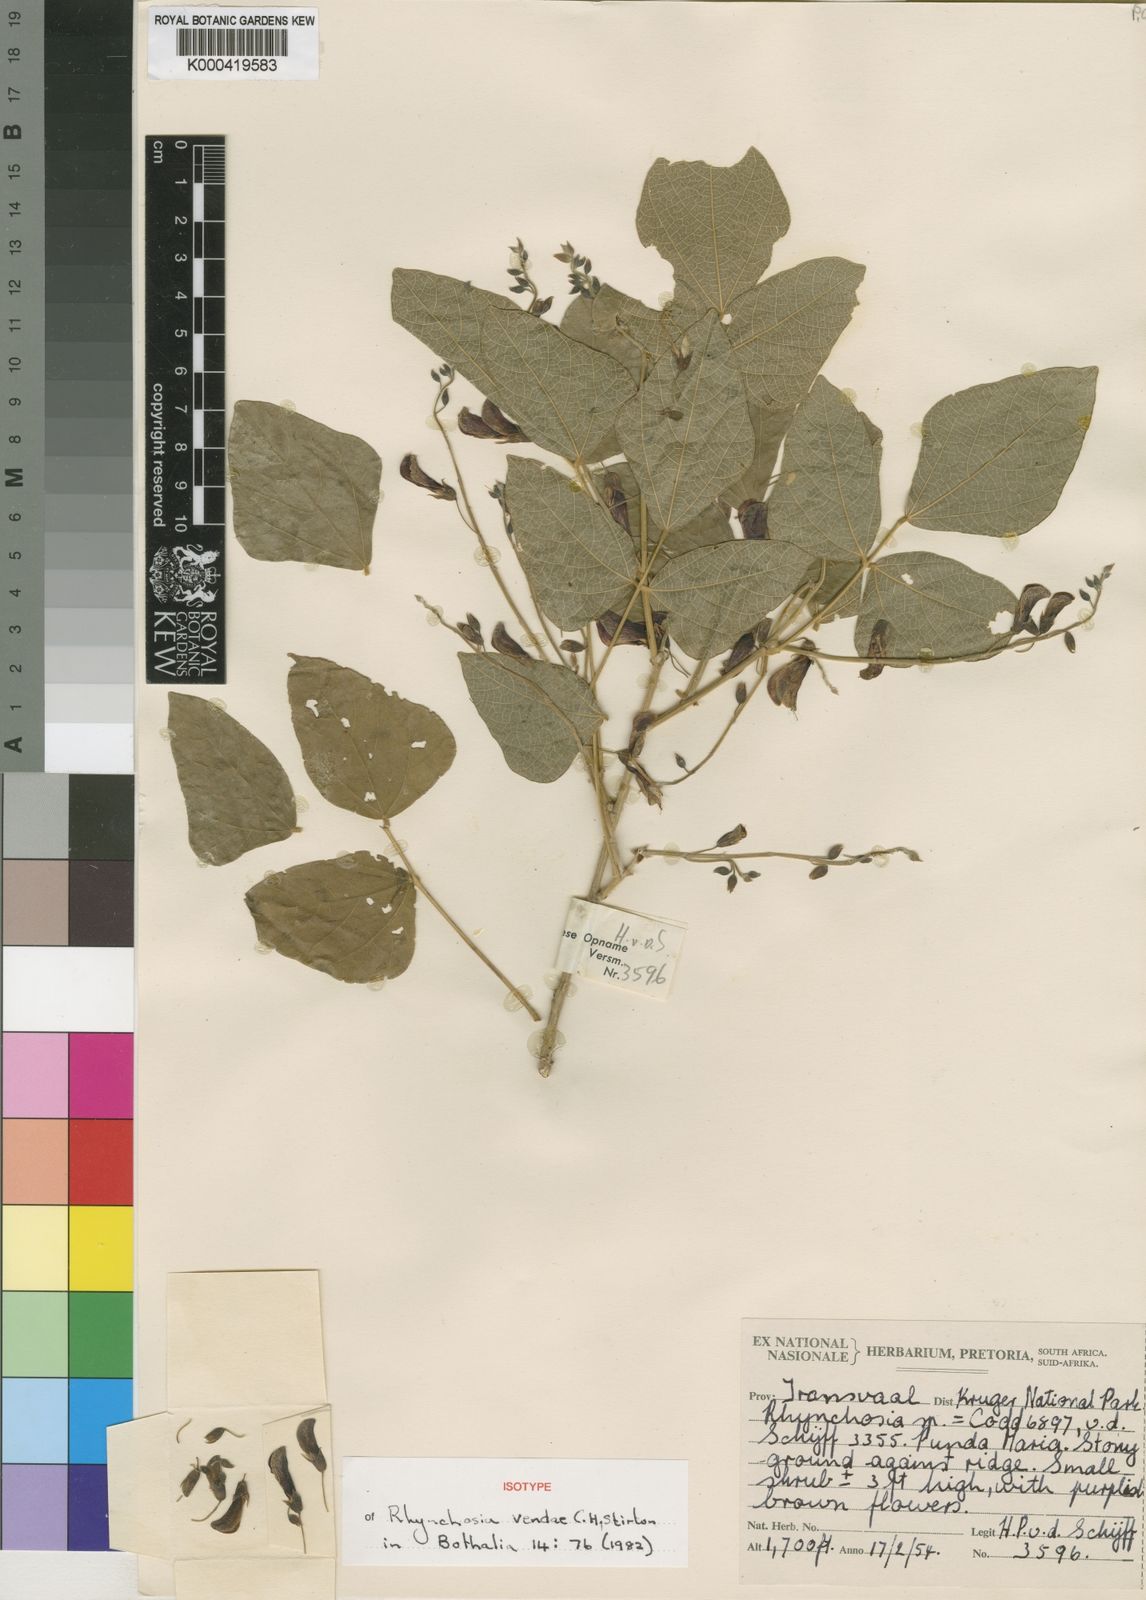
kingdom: Plantae
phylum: Tracheophyta
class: Magnoliopsida
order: Fabales
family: Fabaceae
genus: Rhynchosia
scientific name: Rhynchosia vendae
